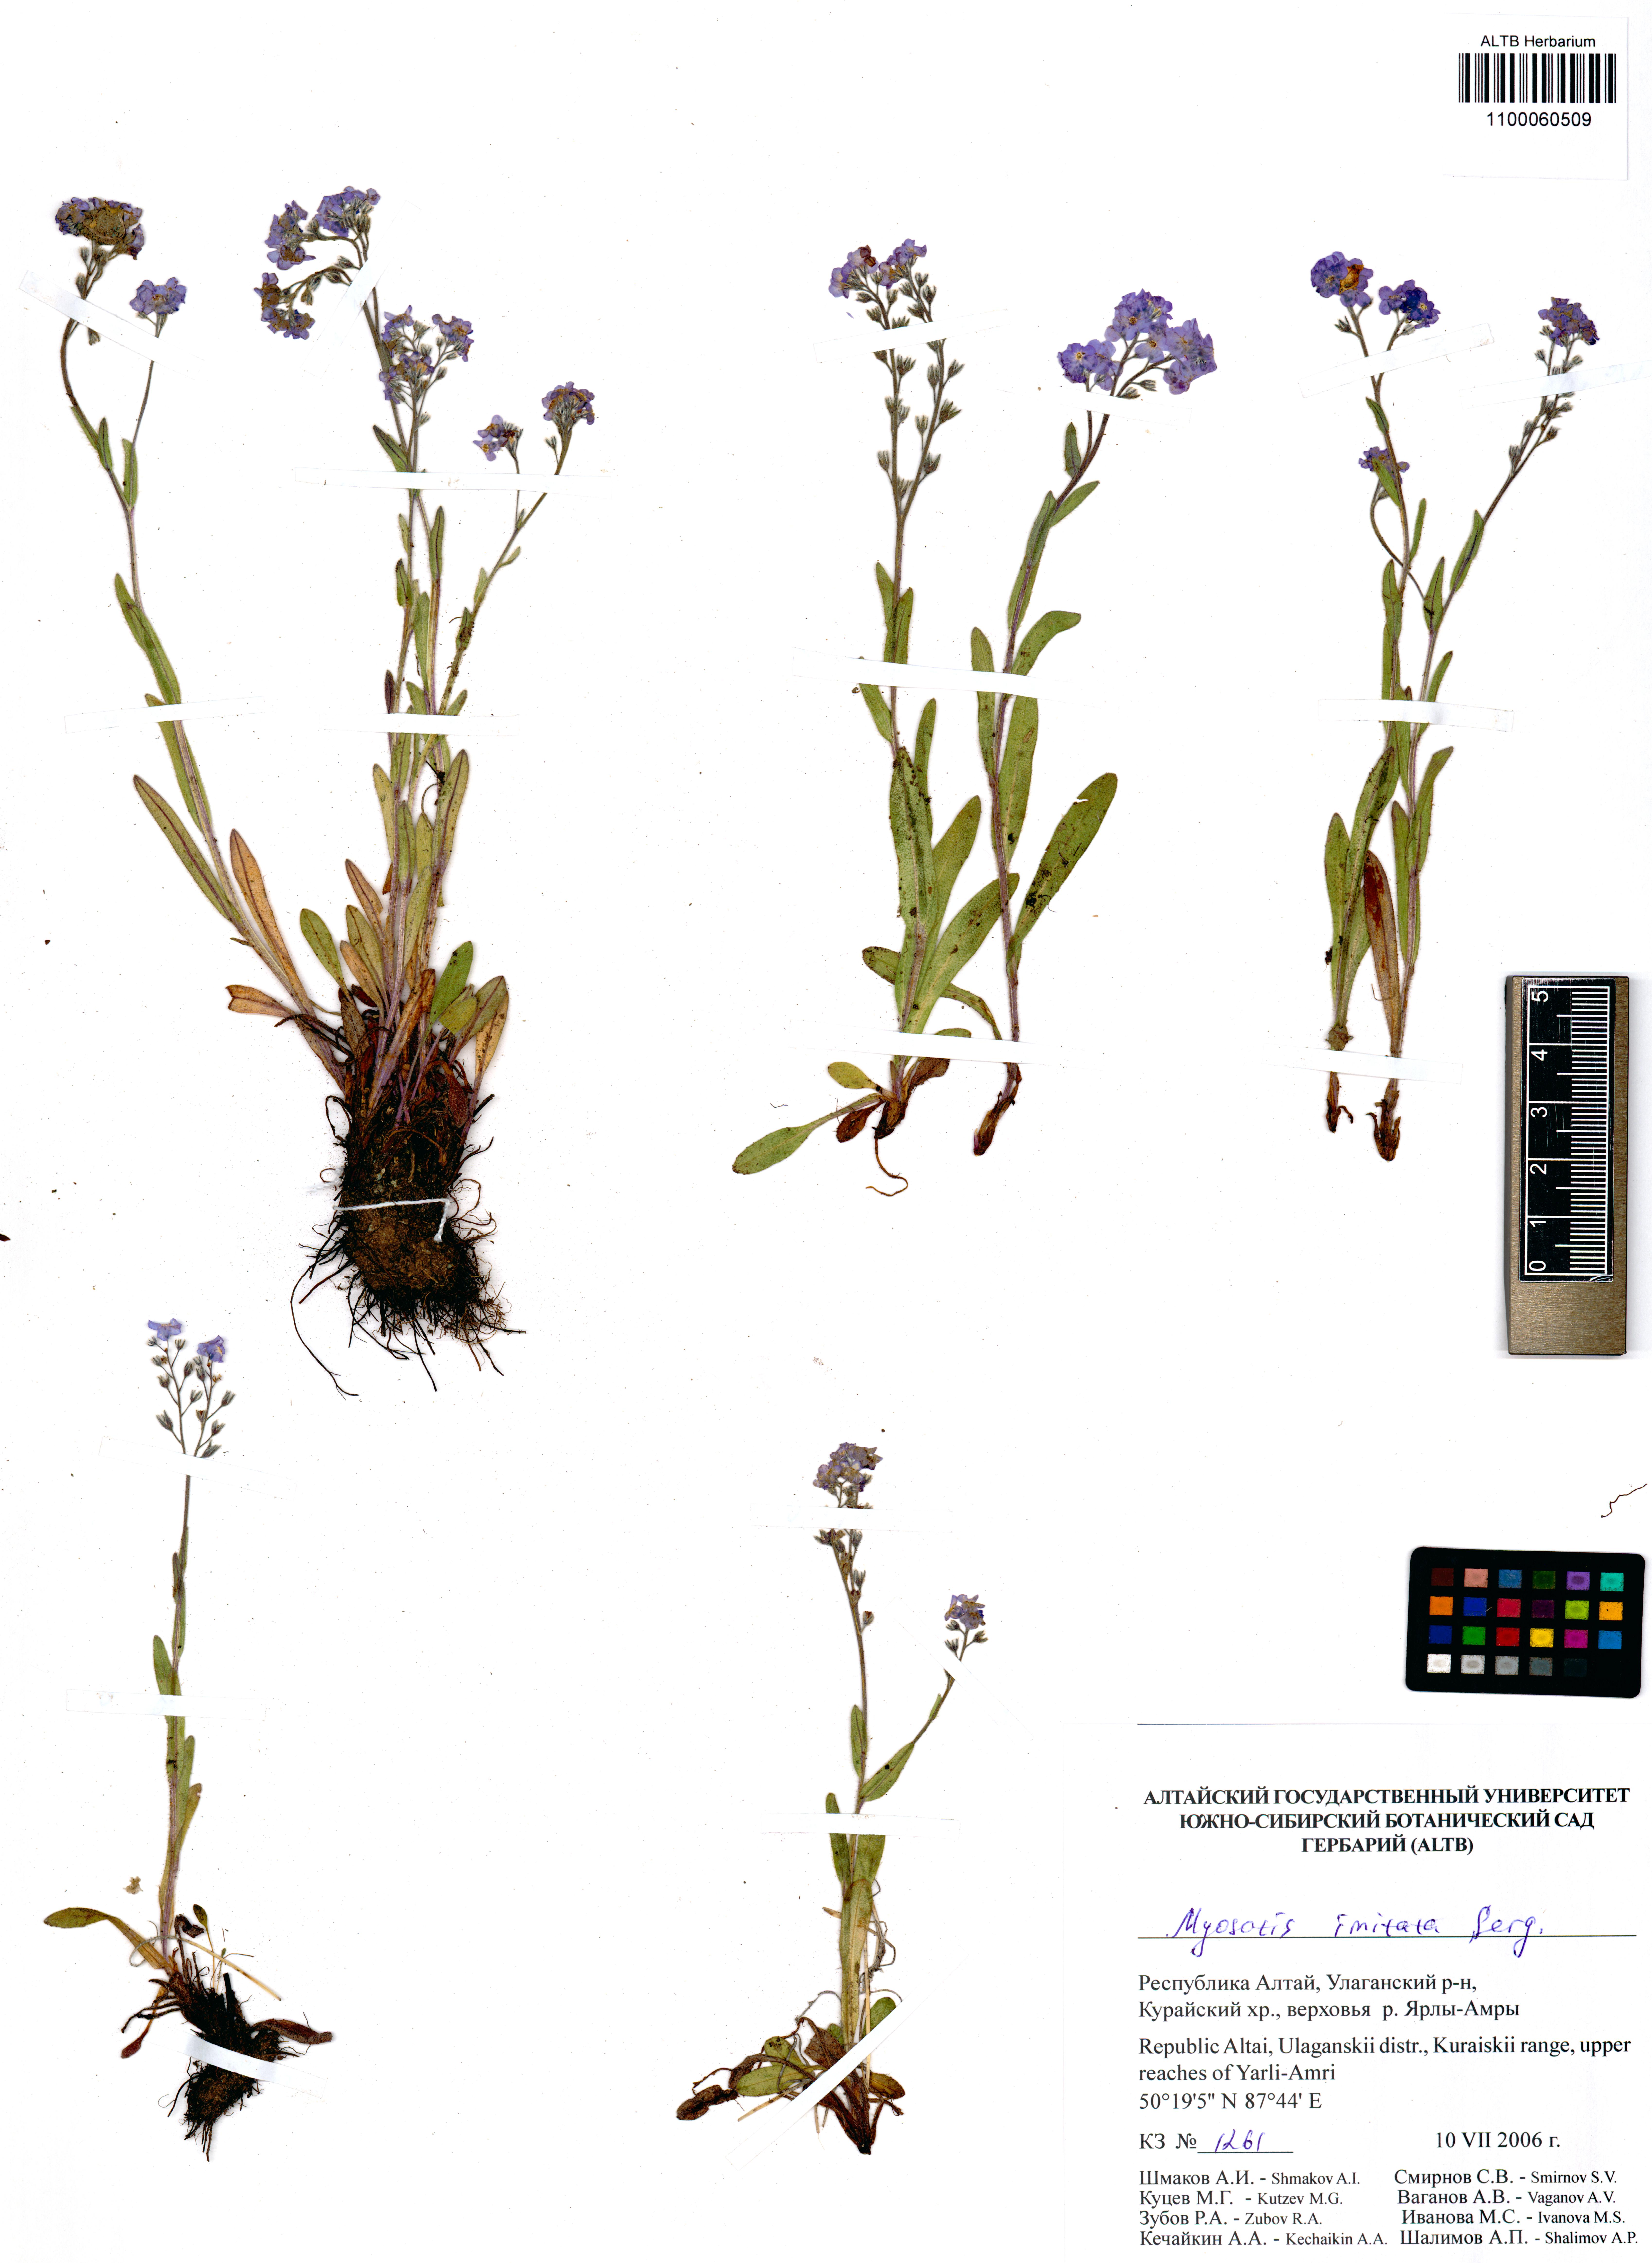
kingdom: Plantae
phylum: Tracheophyta
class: Magnoliopsida
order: Boraginales
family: Boraginaceae
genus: Myosotis
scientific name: Myosotis imitata
